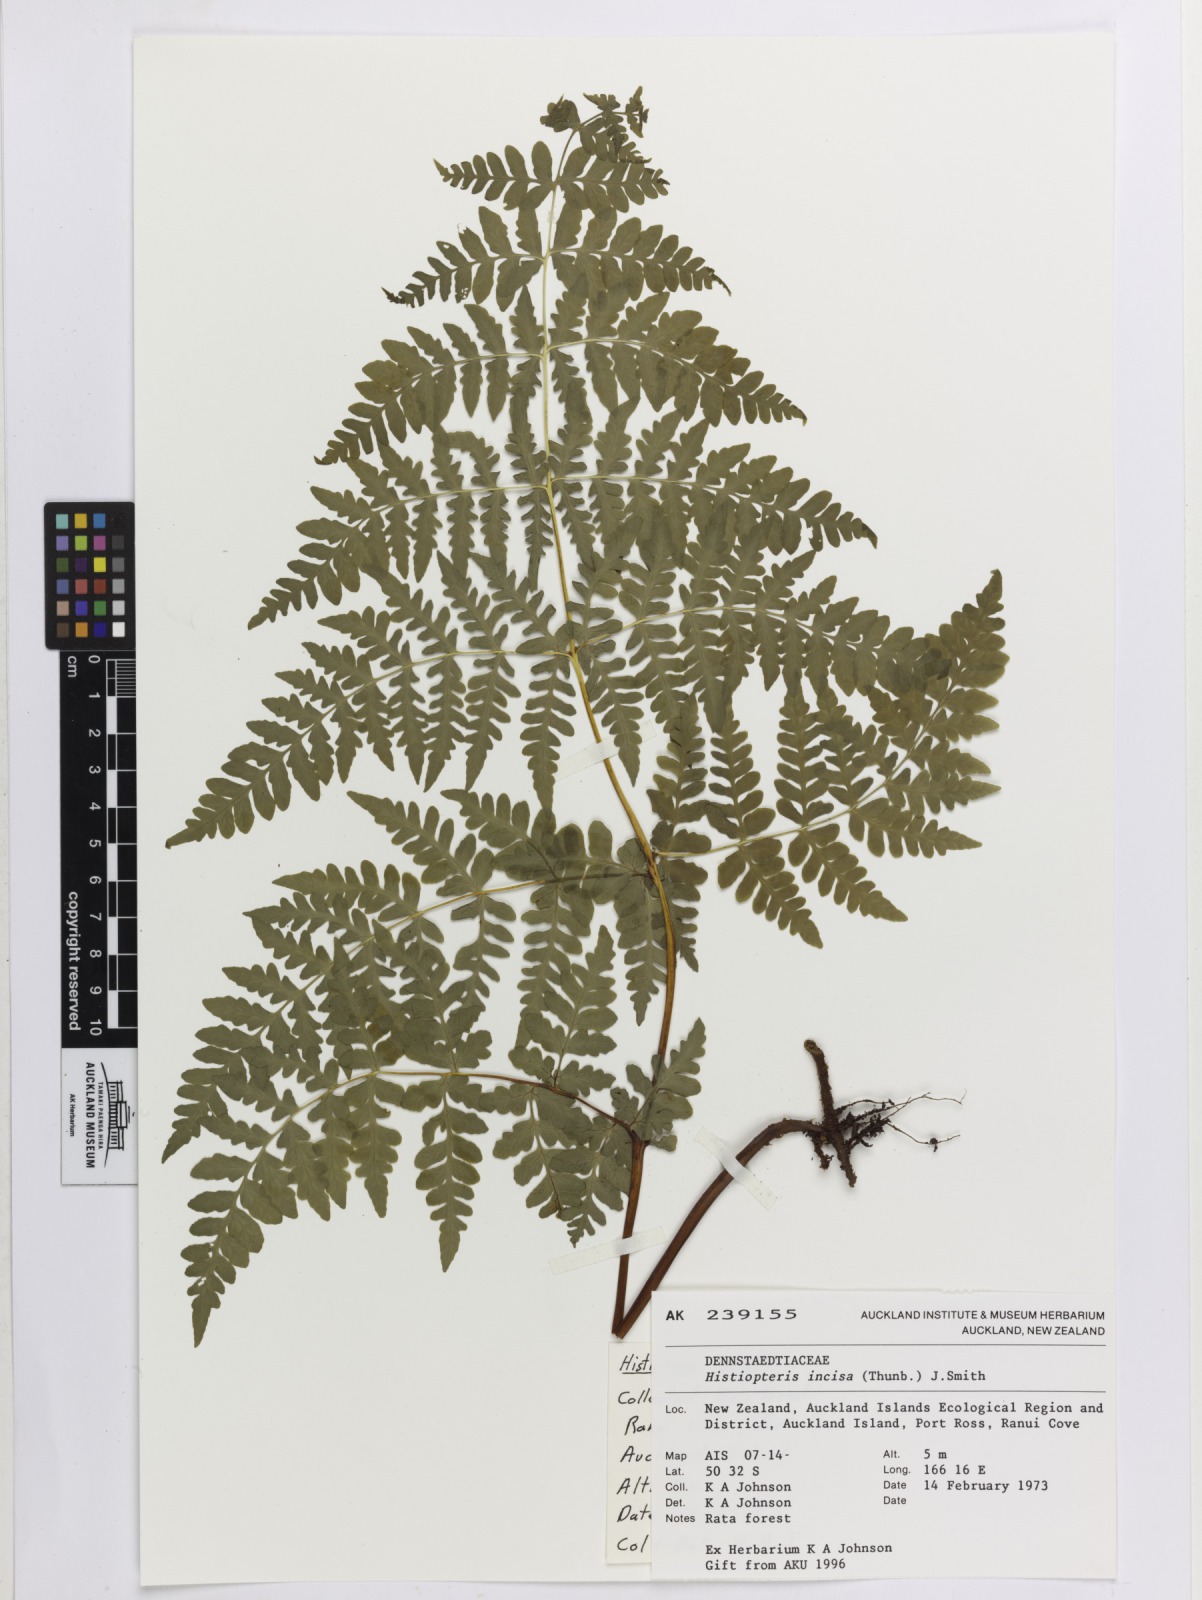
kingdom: Plantae
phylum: Tracheophyta
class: Polypodiopsida
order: Polypodiales
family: Dennstaedtiaceae
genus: Histiopteris
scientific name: Histiopteris incisa
